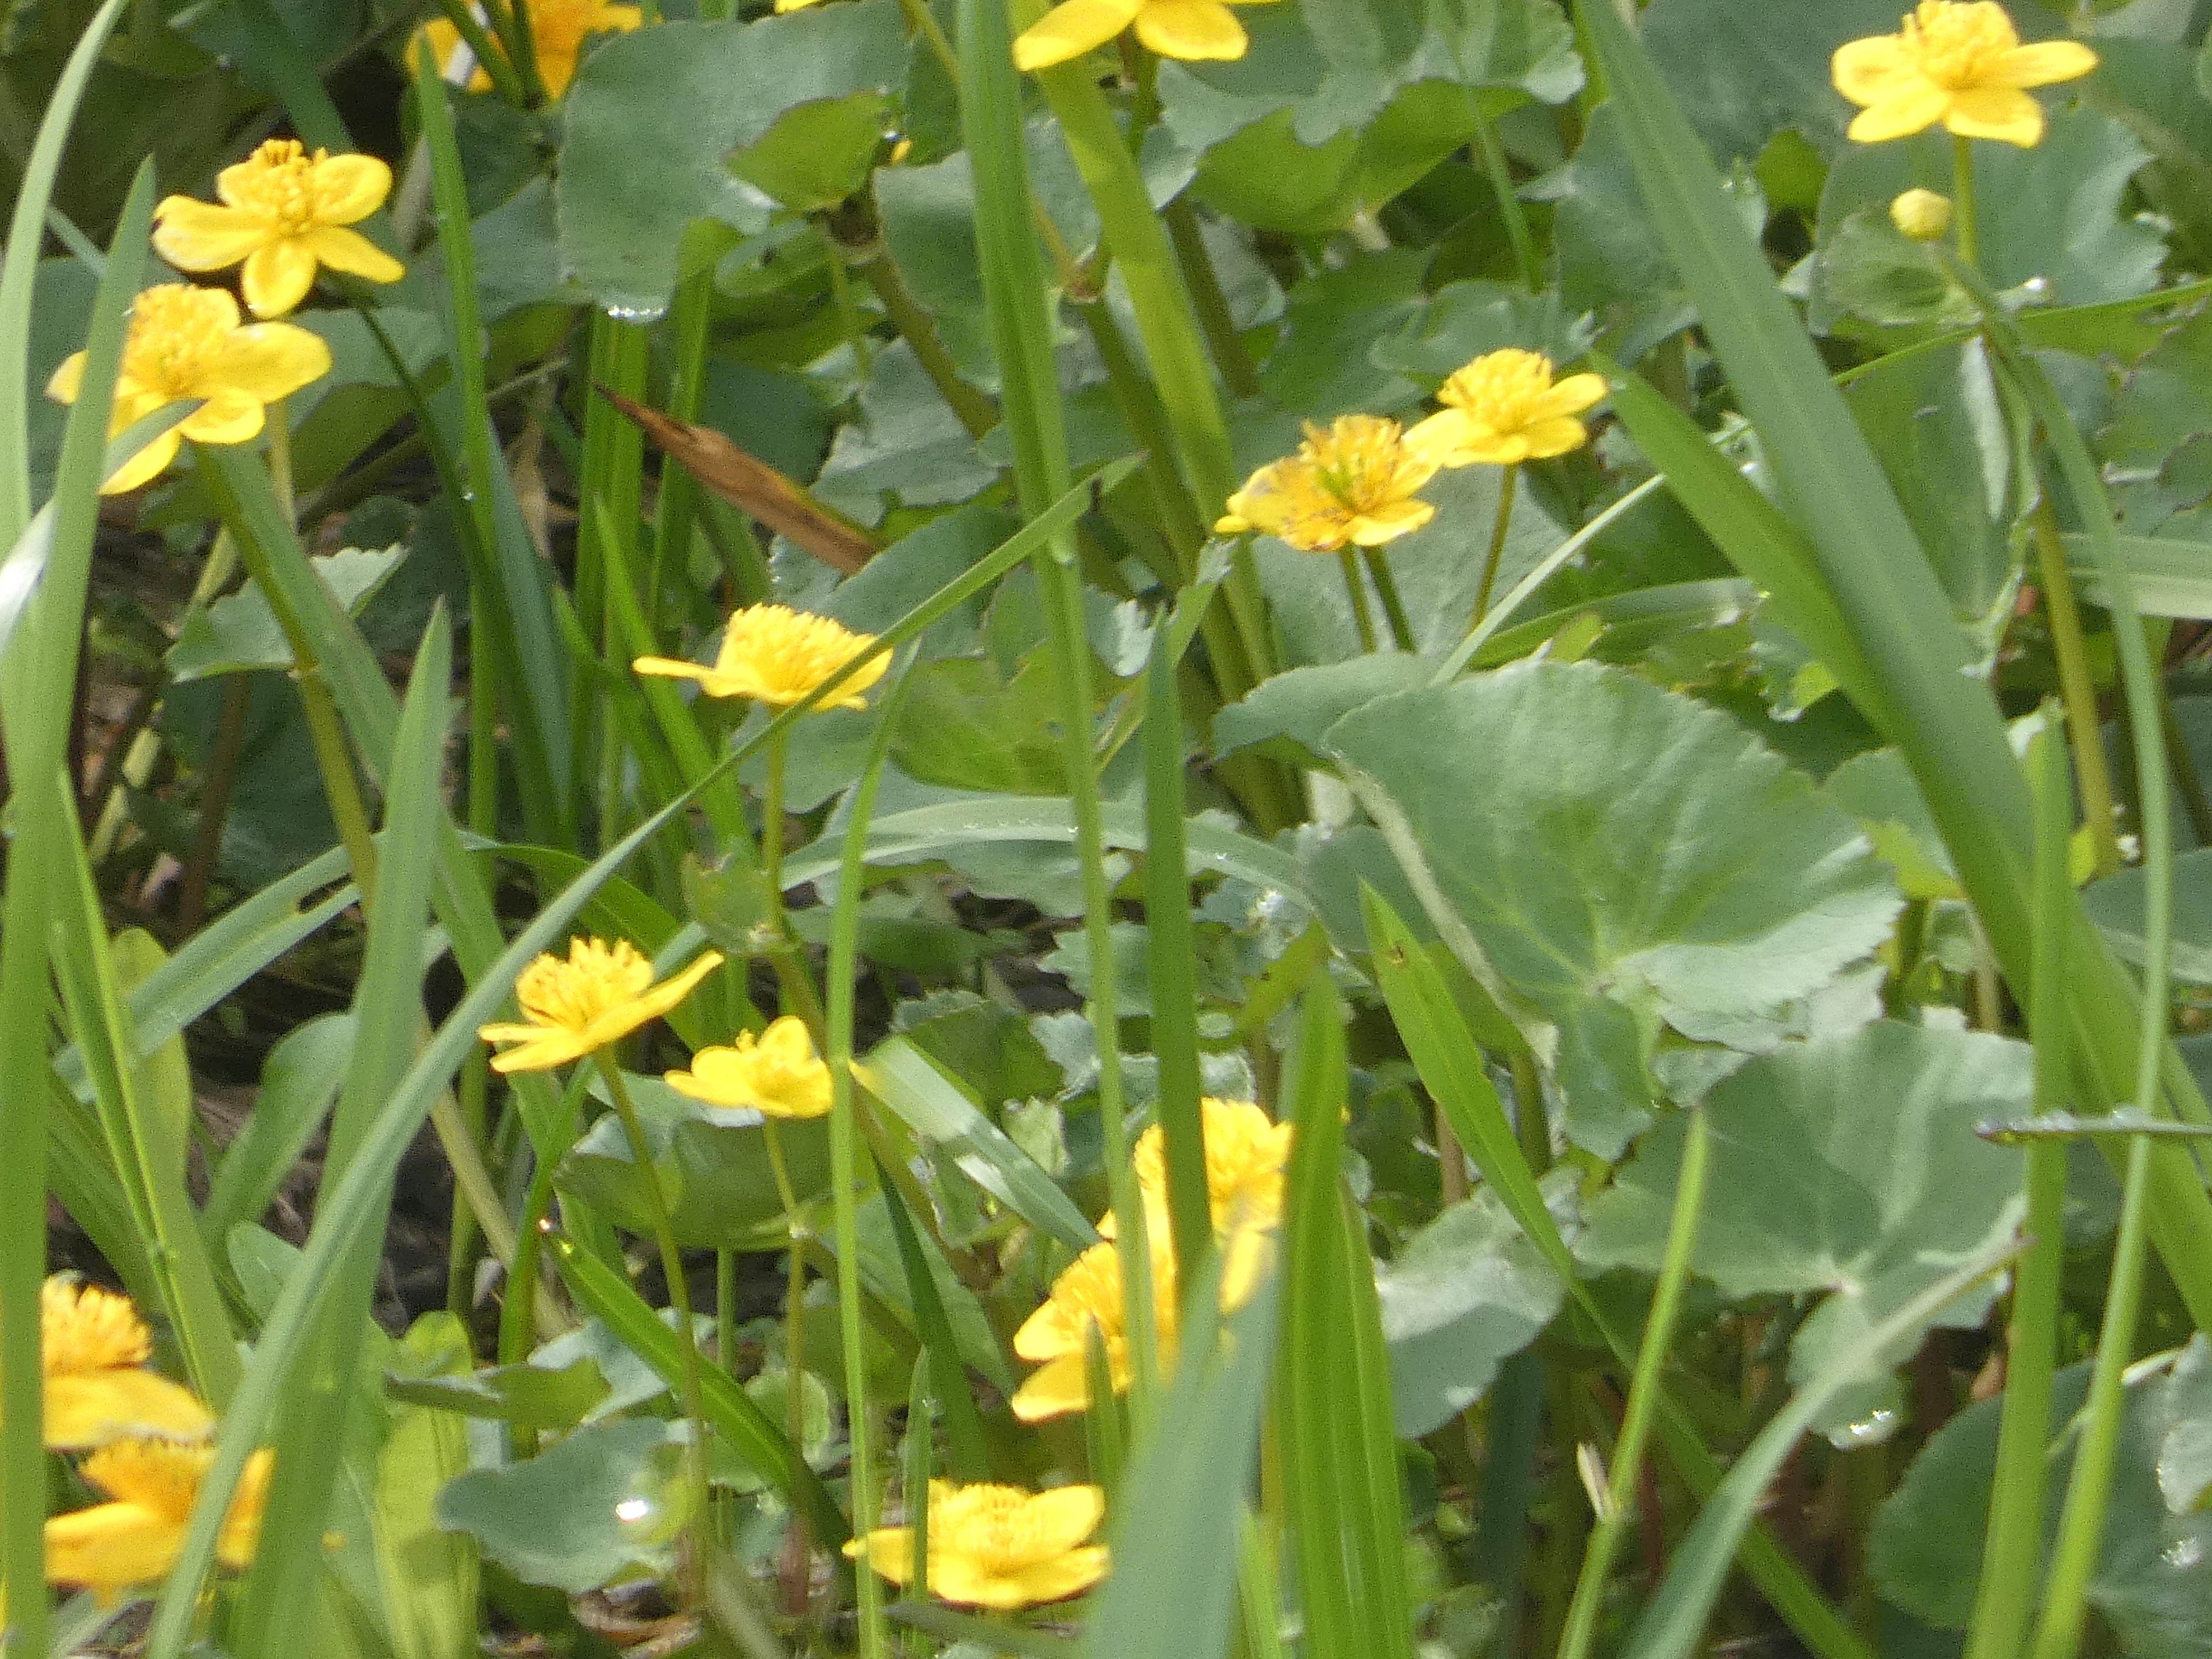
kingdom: Plantae
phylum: Tracheophyta
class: Magnoliopsida
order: Ranunculales
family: Ranunculaceae
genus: Caltha
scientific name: Caltha palustris
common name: Eng-kabbeleje
